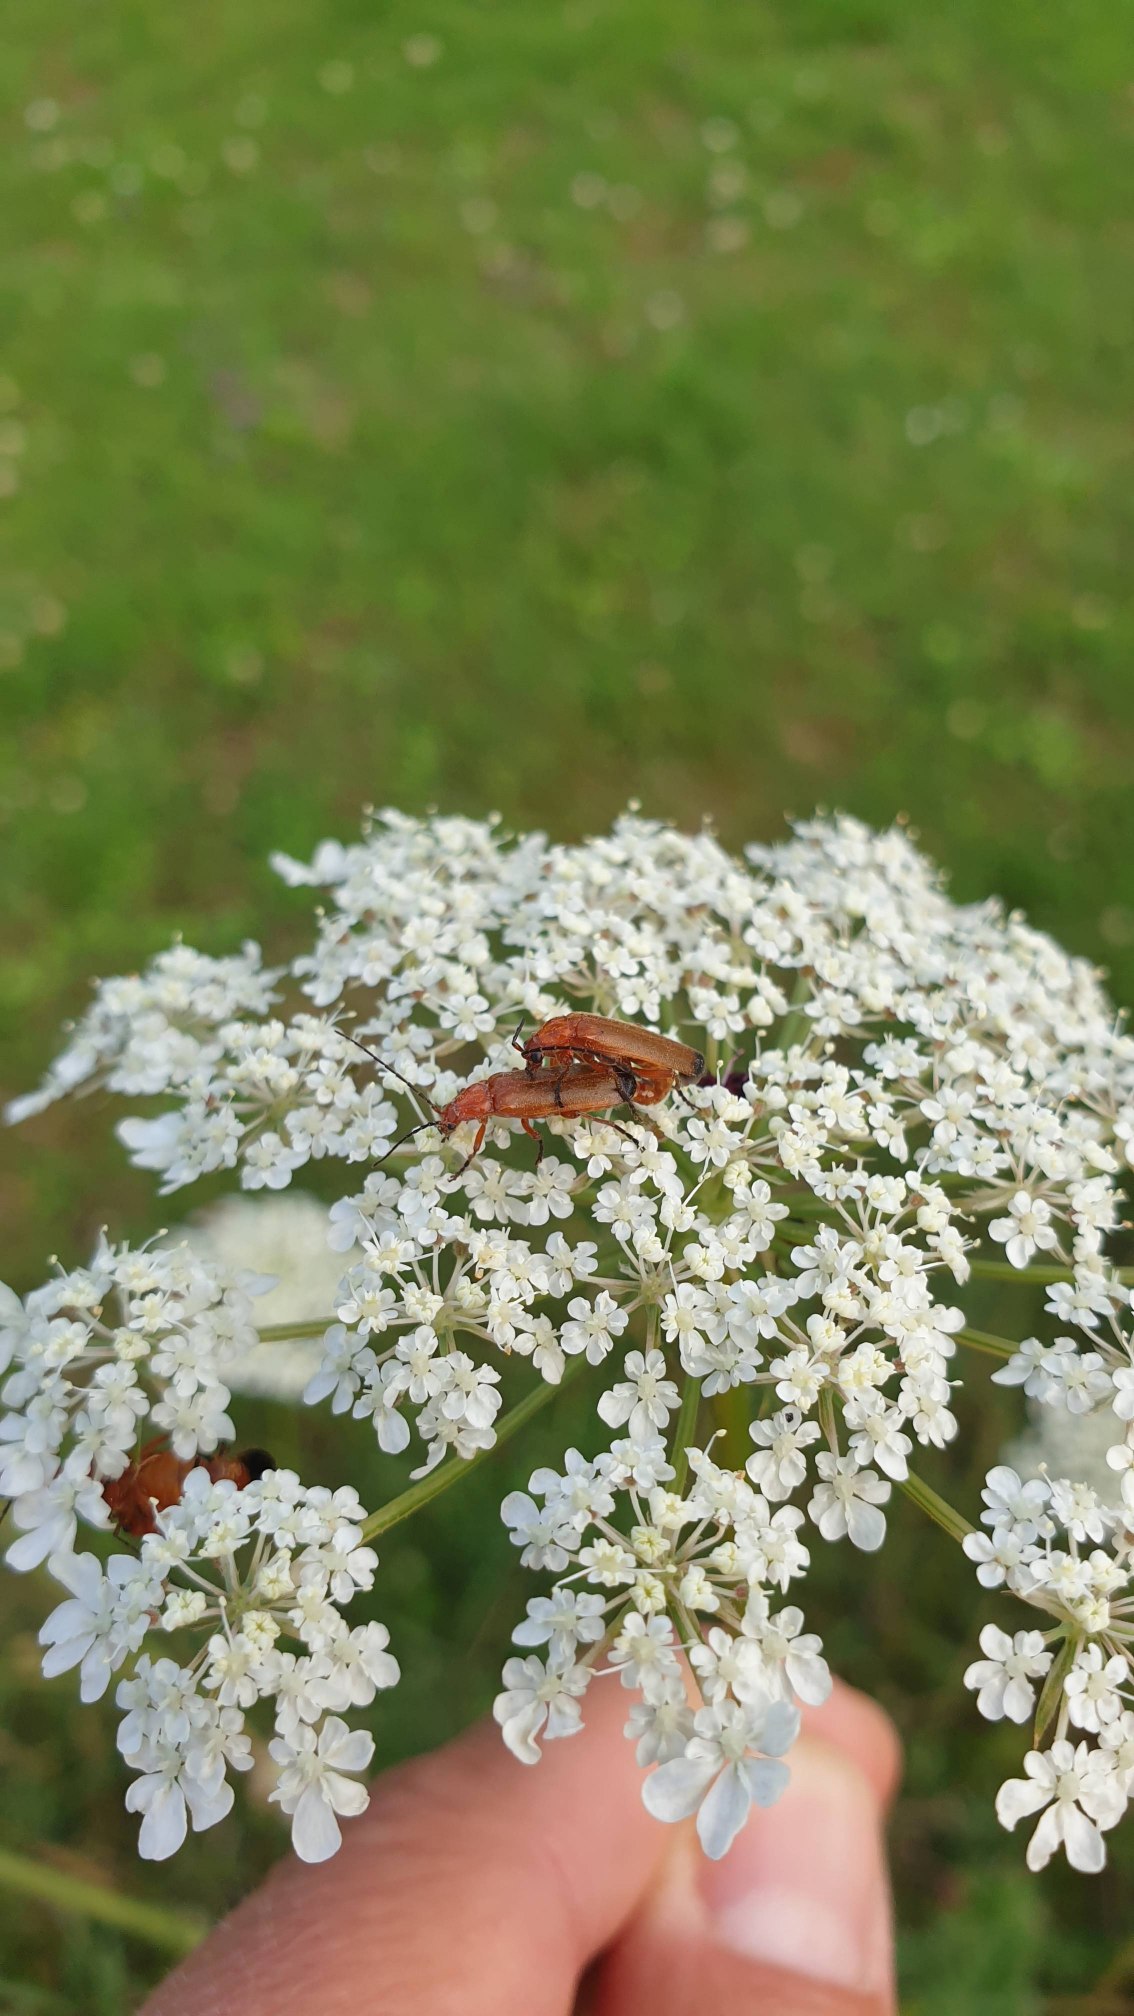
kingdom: Animalia
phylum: Arthropoda
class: Insecta
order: Coleoptera
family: Cantharidae
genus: Rhagonycha
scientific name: Rhagonycha fulva
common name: Præstebille
